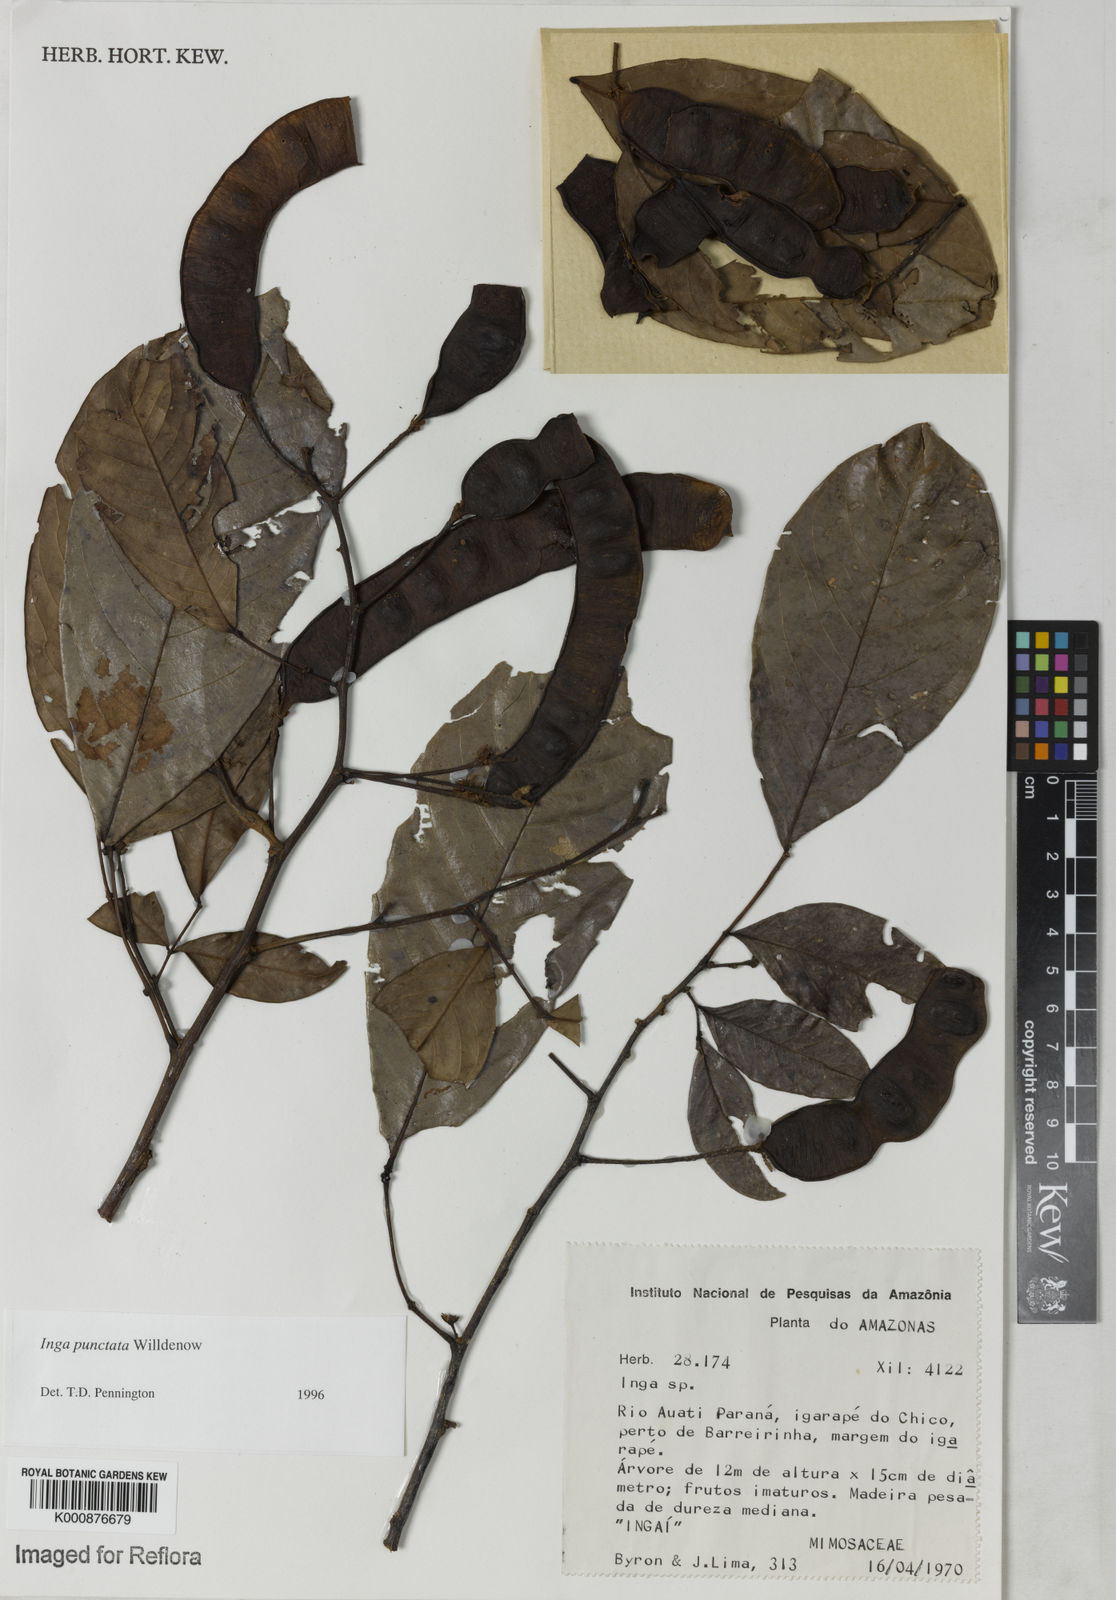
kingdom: Plantae
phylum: Tracheophyta
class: Magnoliopsida
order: Fabales
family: Fabaceae
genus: Inga
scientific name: Inga punctata
